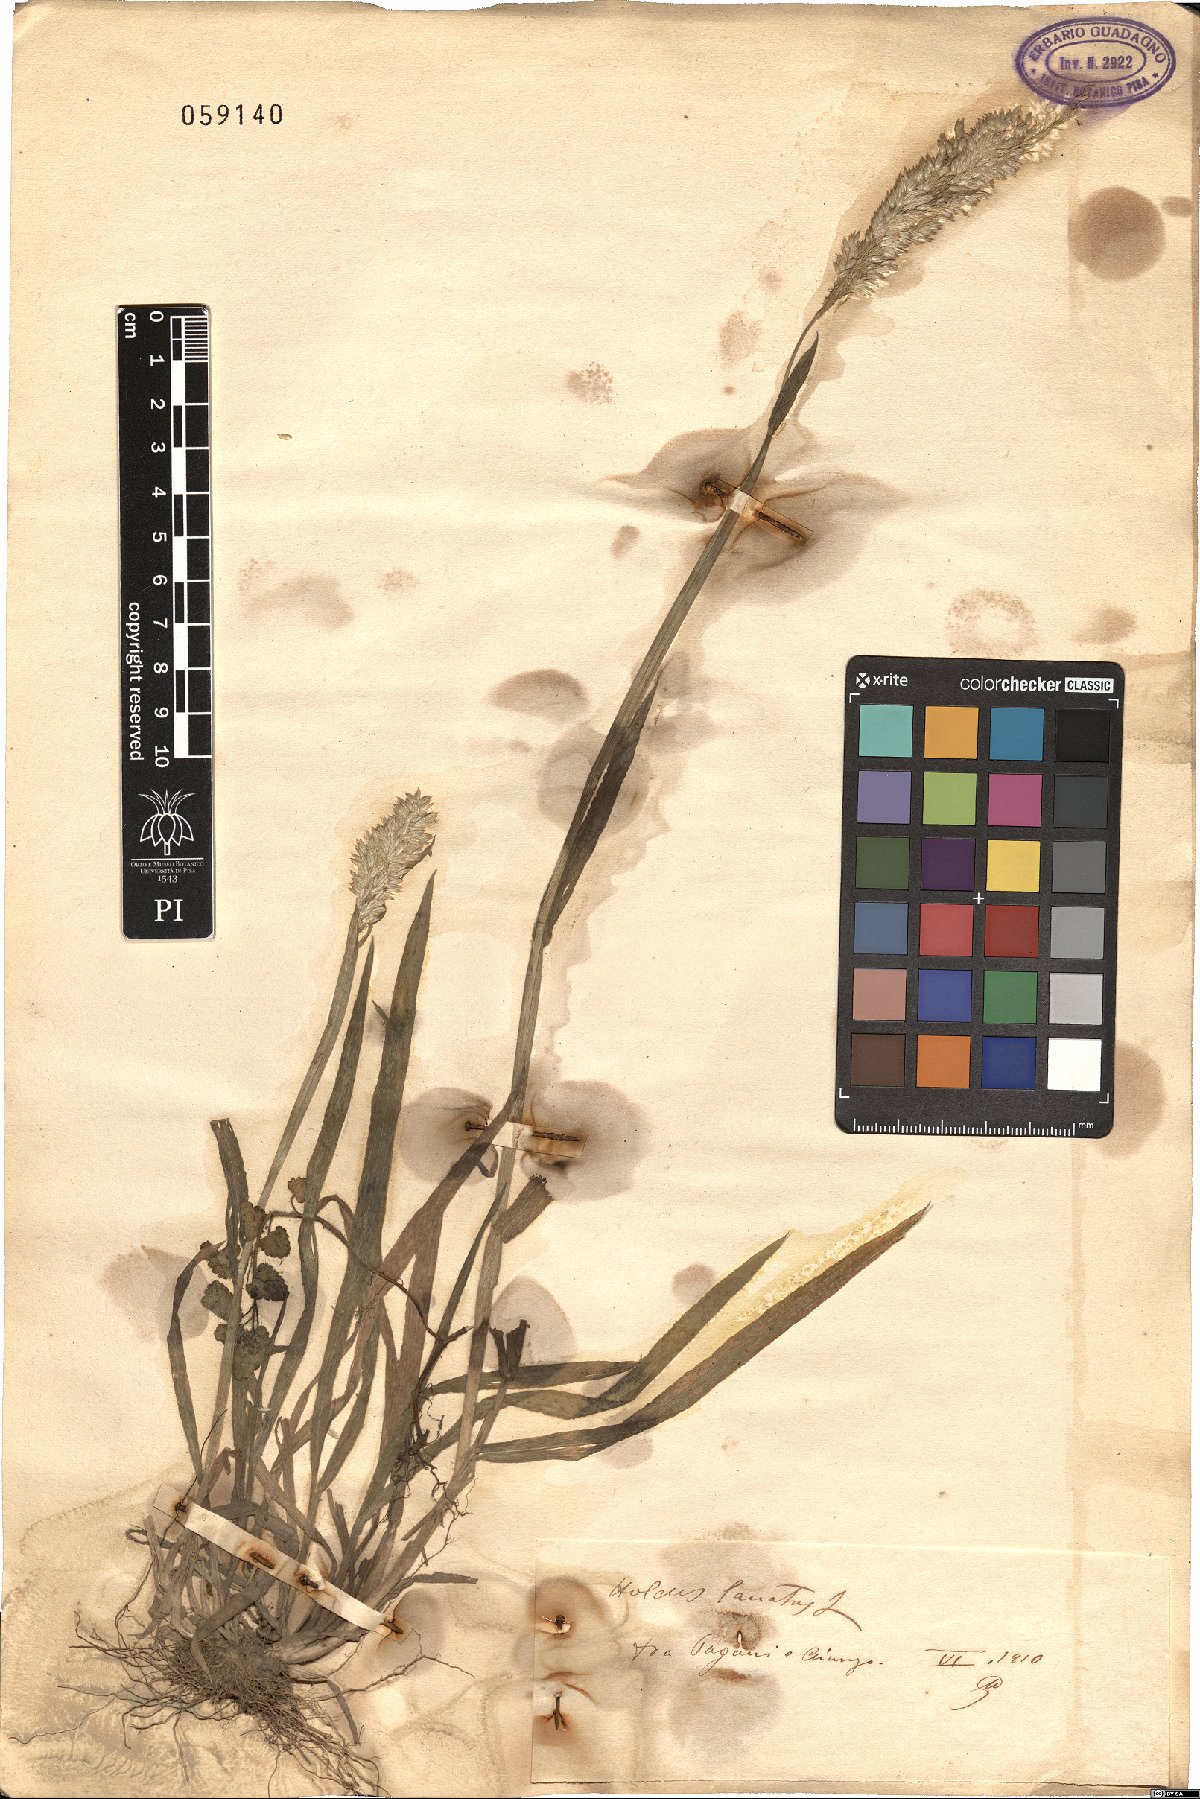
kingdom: Plantae
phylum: Tracheophyta
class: Liliopsida
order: Poales
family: Poaceae
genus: Holcus
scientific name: Holcus lanatus
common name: Yorkshire-fog
